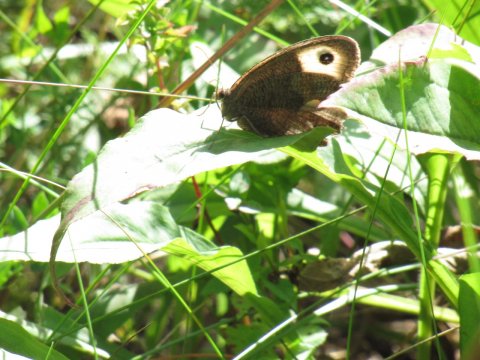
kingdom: Animalia
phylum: Arthropoda
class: Insecta
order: Lepidoptera
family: Nymphalidae
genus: Cercyonis
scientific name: Cercyonis pegala
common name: Common Wood-Nymph
